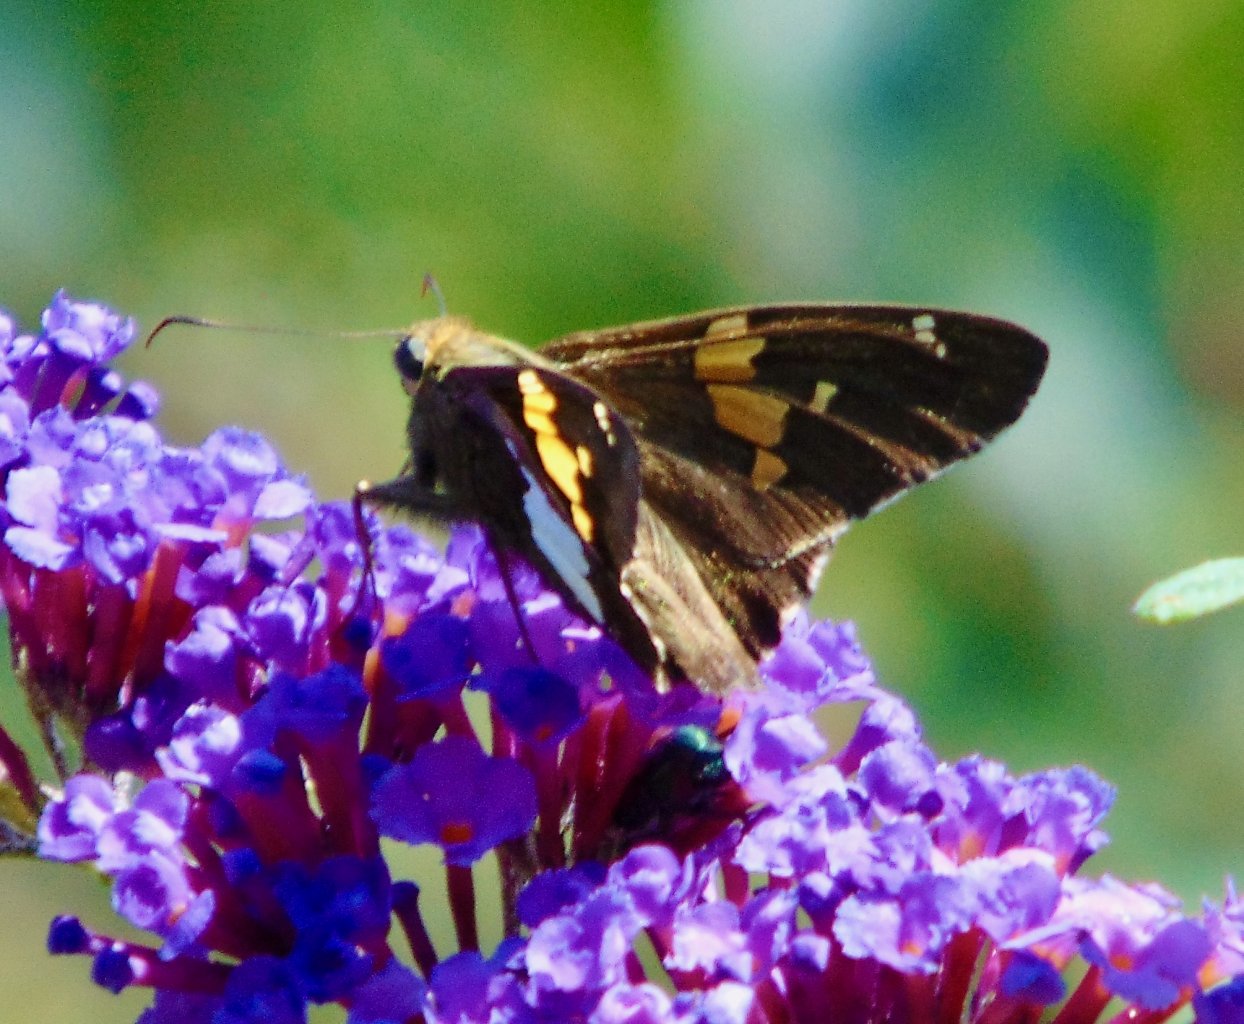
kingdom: Animalia
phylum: Arthropoda
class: Insecta
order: Lepidoptera
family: Hesperiidae
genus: Epargyreus
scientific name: Epargyreus clarus
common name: Silver-spotted Skipper
